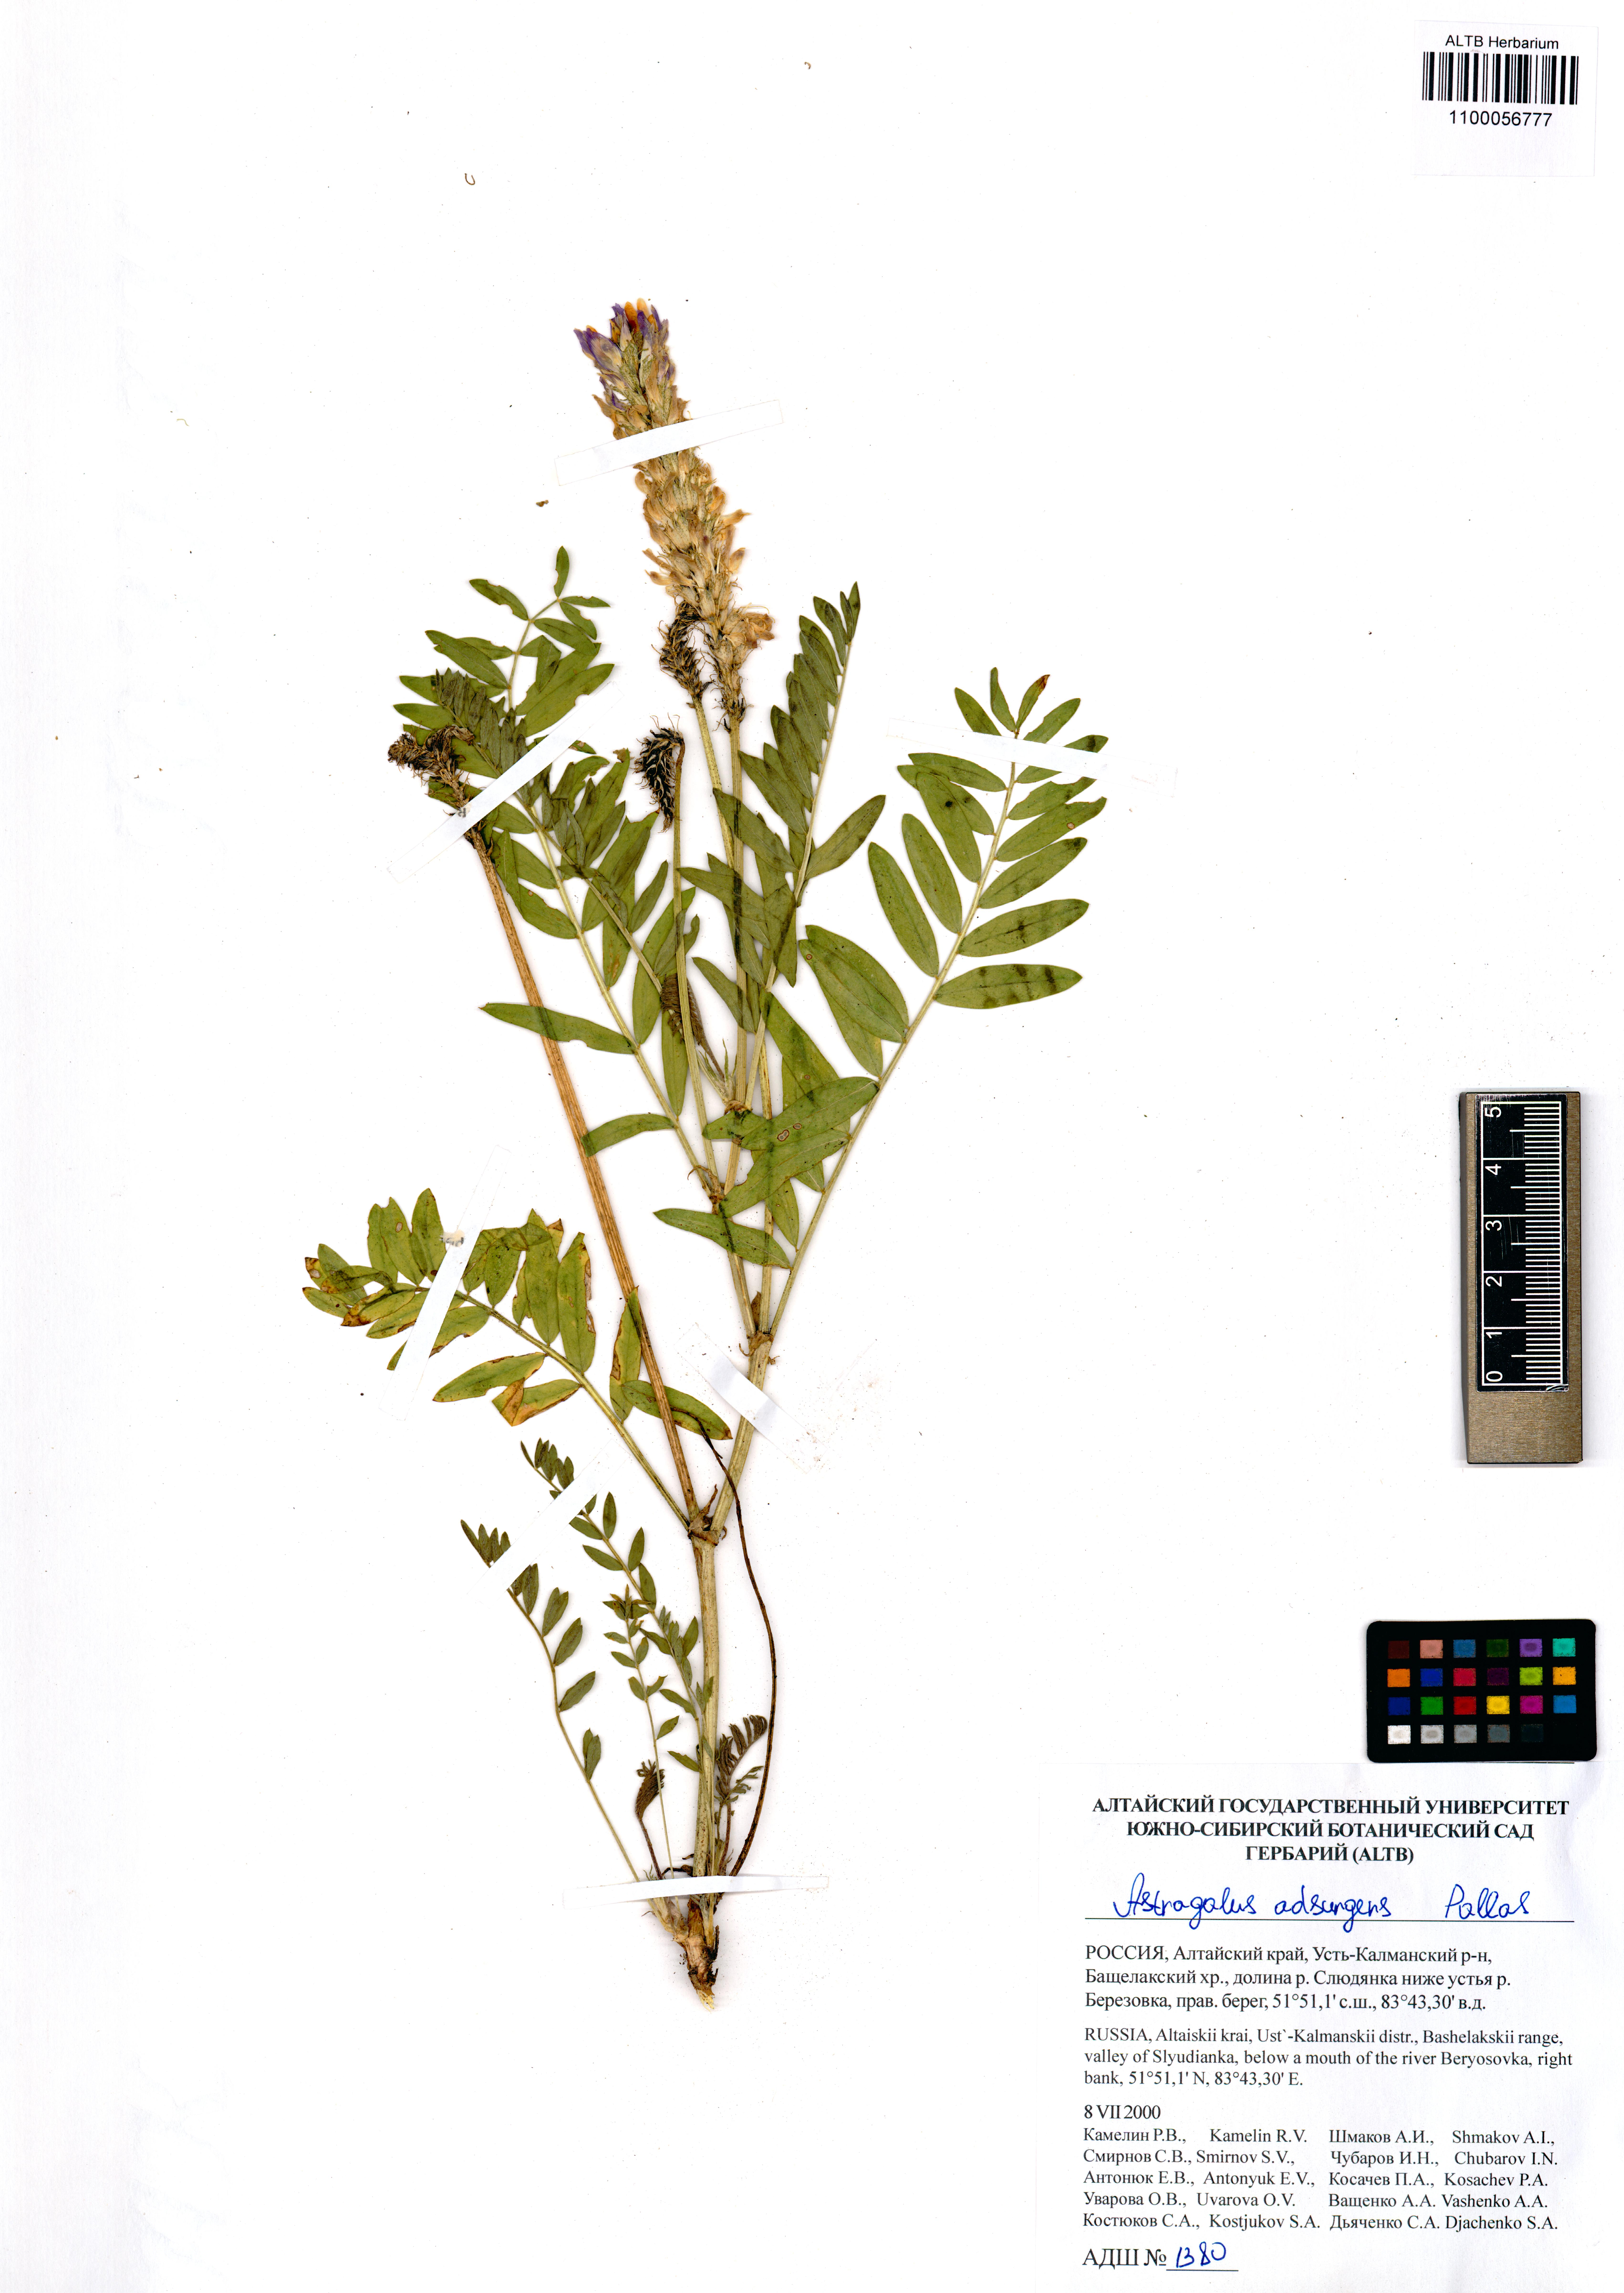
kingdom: Plantae
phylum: Tracheophyta
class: Magnoliopsida
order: Fabales
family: Fabaceae
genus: Astragalus
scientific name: Astragalus laxmannii
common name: Laxmann's milk-vetch
